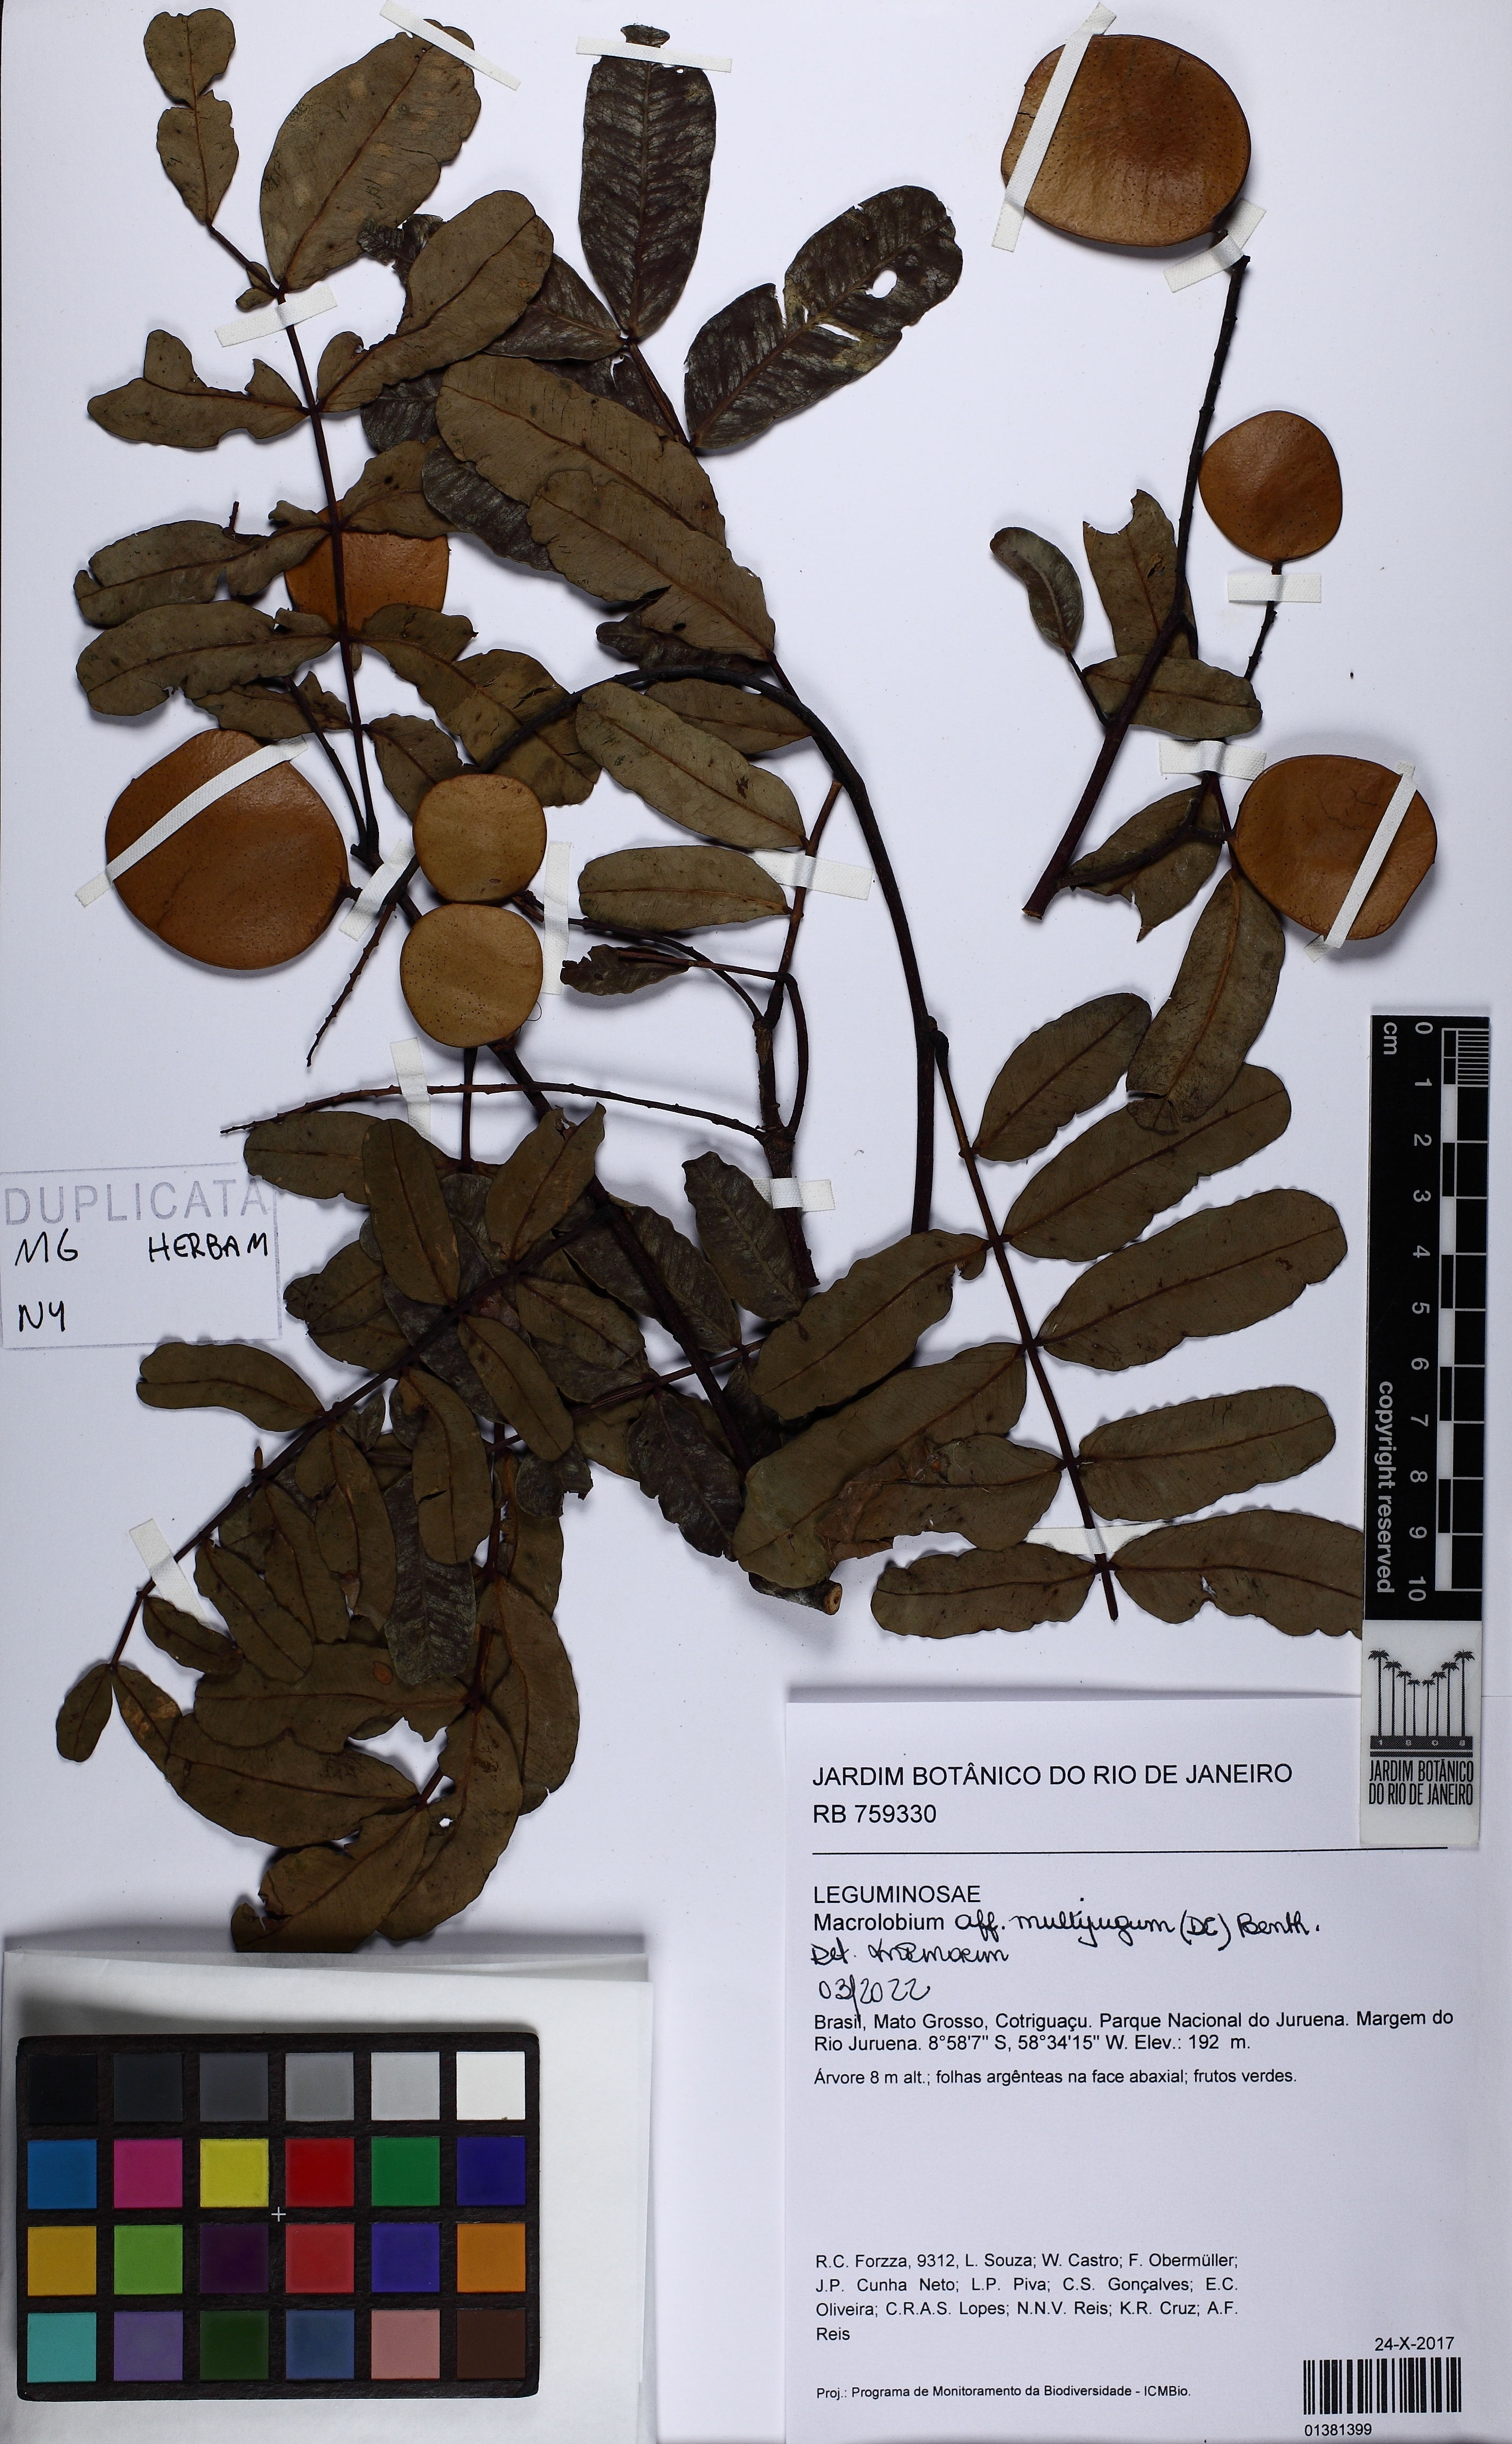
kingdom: Plantae
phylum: Tracheophyta
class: Magnoliopsida
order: Fabales
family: Fabaceae
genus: Macrolobium
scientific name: Macrolobium multijugum
